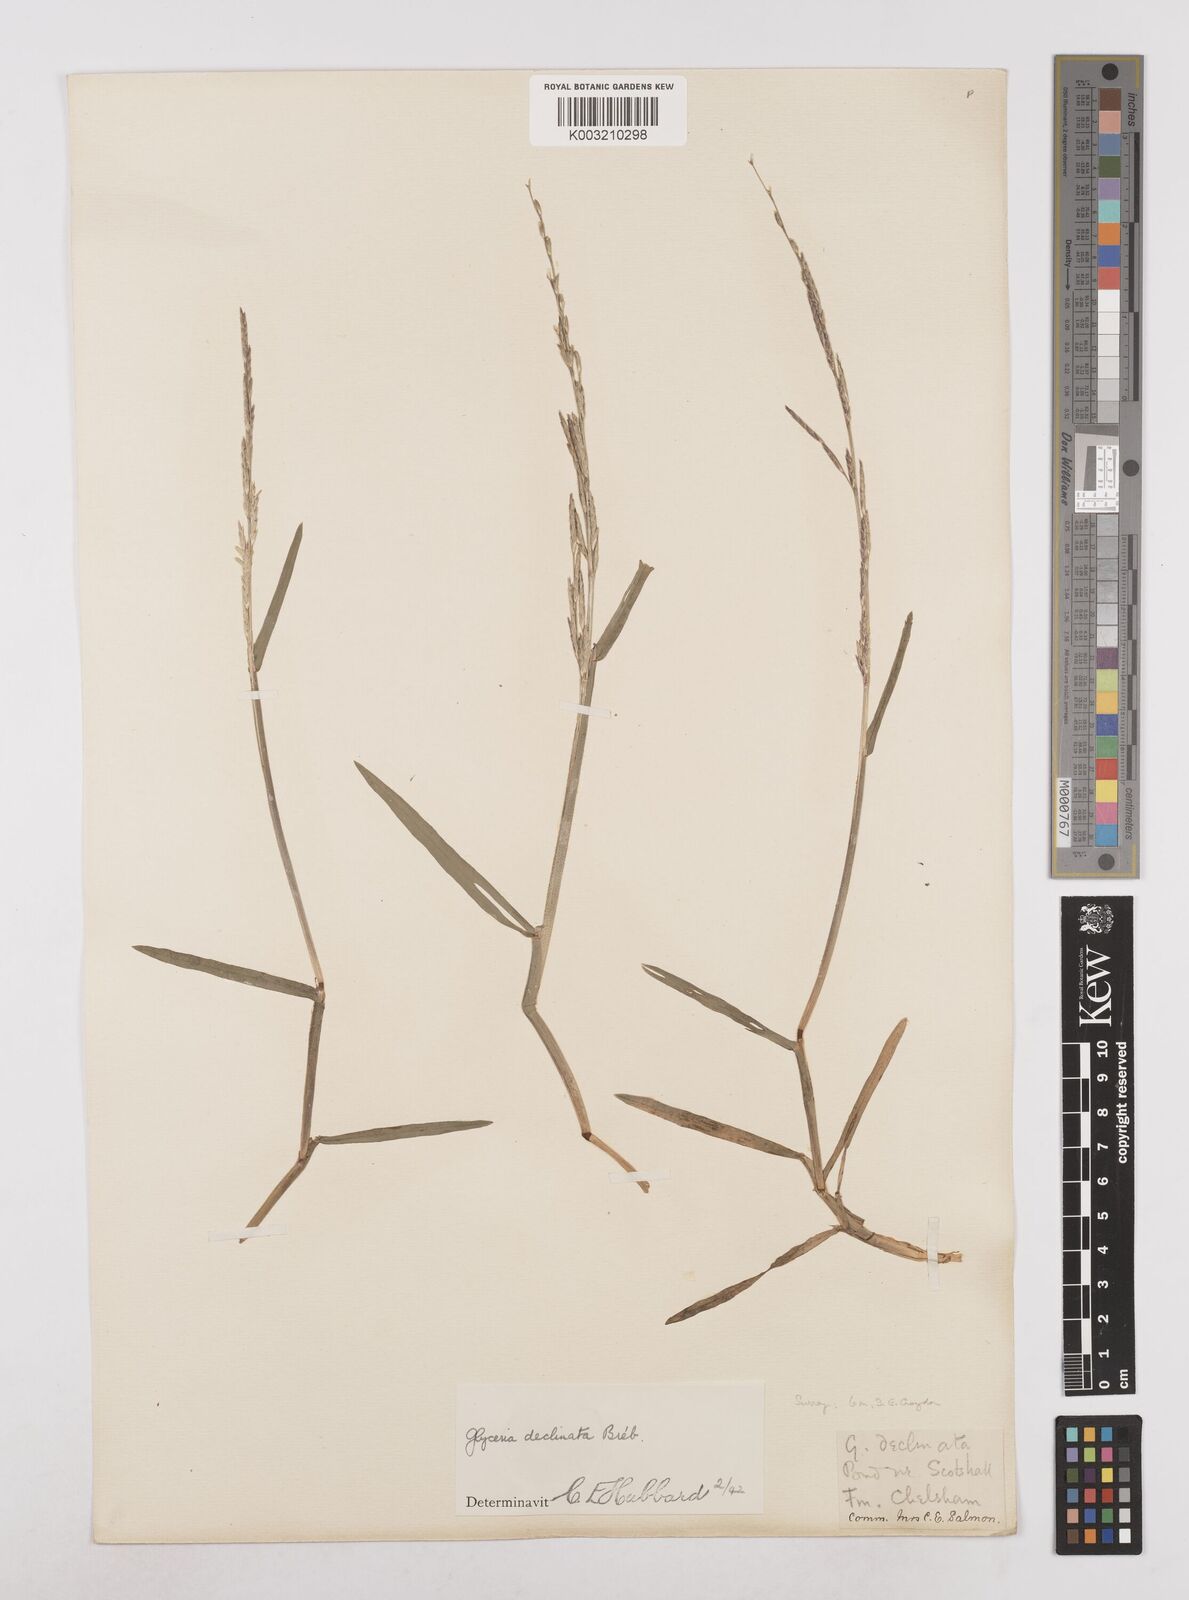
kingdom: Plantae
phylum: Tracheophyta
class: Liliopsida
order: Poales
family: Poaceae
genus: Glyceria
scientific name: Glyceria declinata
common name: Small sweet-grass
